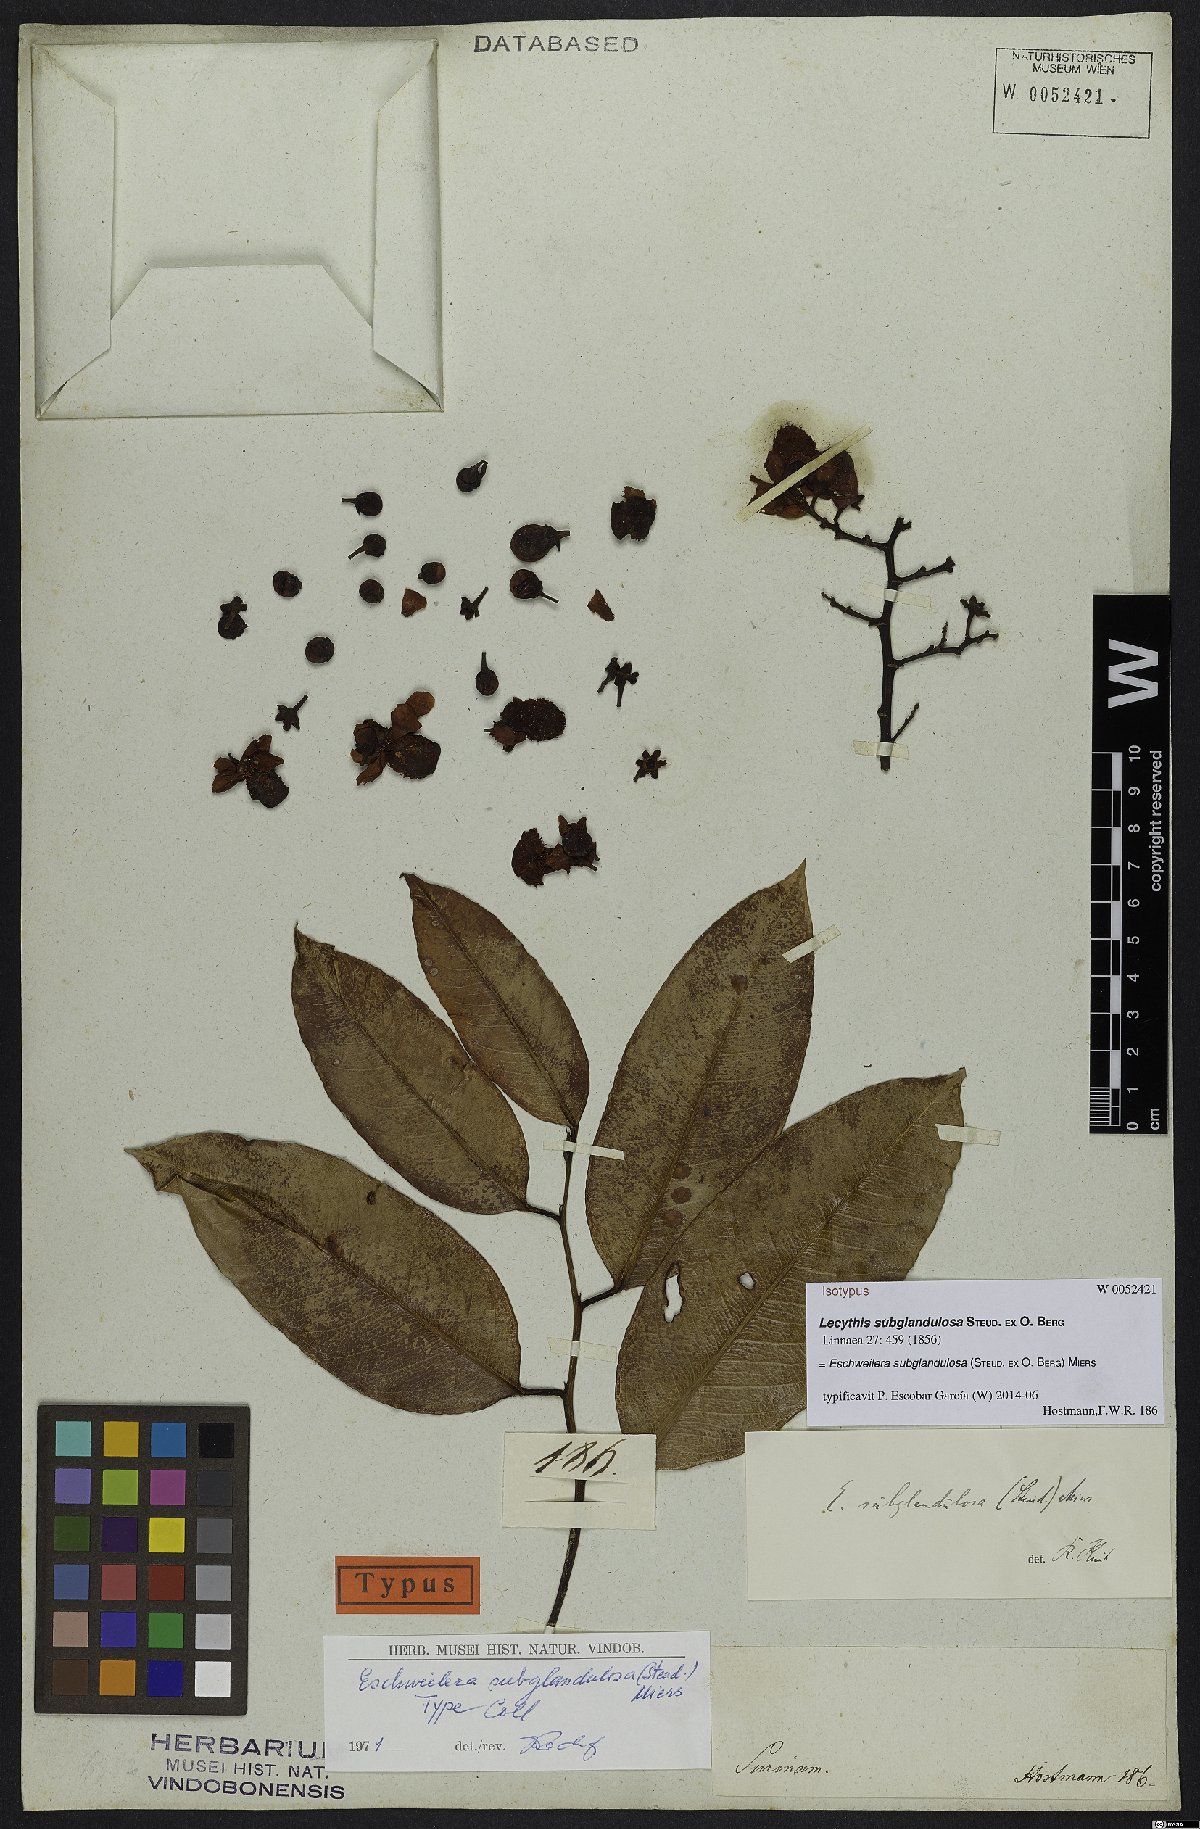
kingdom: Plantae
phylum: Tracheophyta
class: Magnoliopsida
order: Ericales
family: Lecythidaceae
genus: Eschweilera
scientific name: Eschweilera subglandulosa
